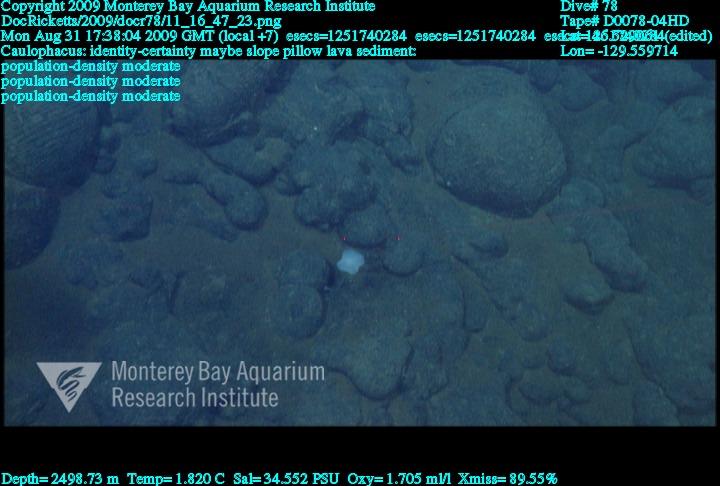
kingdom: Animalia
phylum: Porifera
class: Hexactinellida
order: Lyssacinosida
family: Rossellidae
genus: Caulophacus
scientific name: Caulophacus
